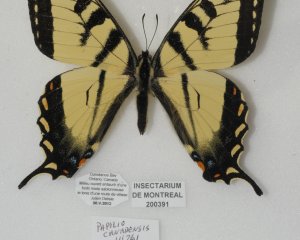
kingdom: Animalia
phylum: Arthropoda
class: Insecta
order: Lepidoptera
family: Papilionidae
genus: Pterourus
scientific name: Pterourus canadensis
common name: Canadian Tiger Swallowtail
